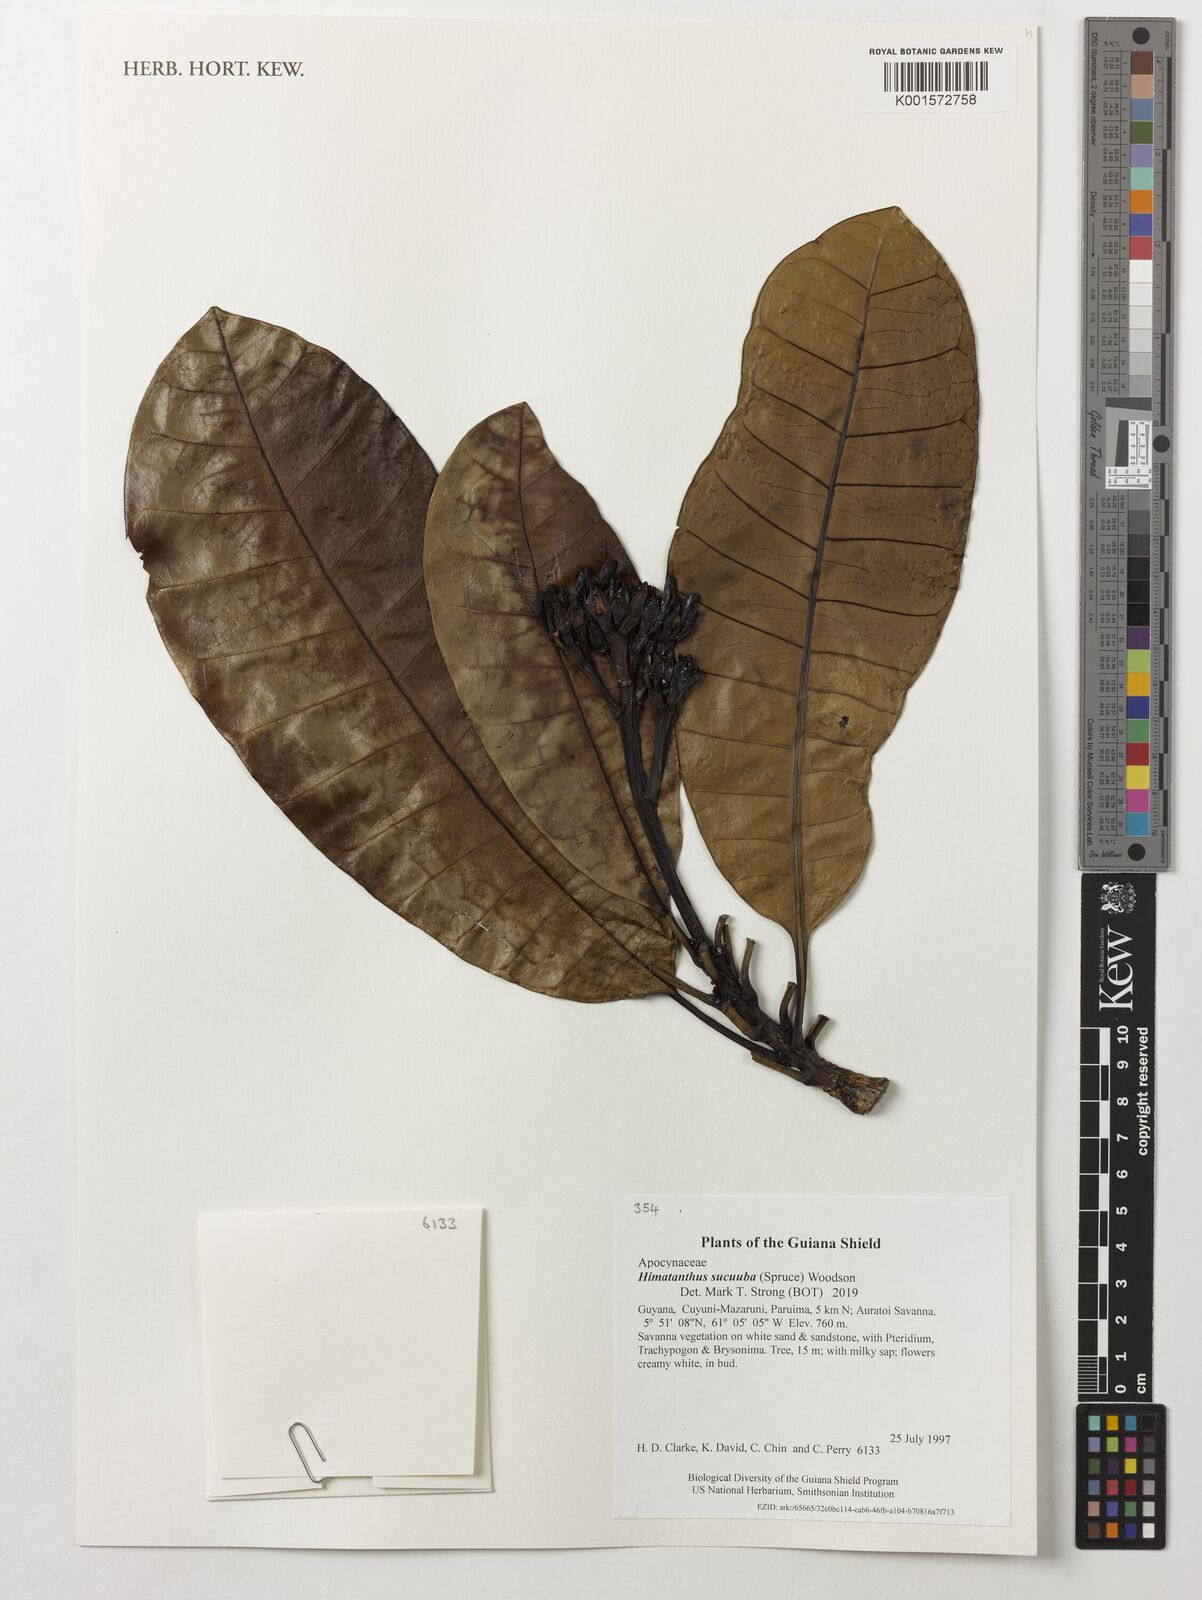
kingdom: Plantae
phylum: Tracheophyta
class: Magnoliopsida
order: Gentianales
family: Apocynaceae
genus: Himatanthus
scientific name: Himatanthus articulatus
